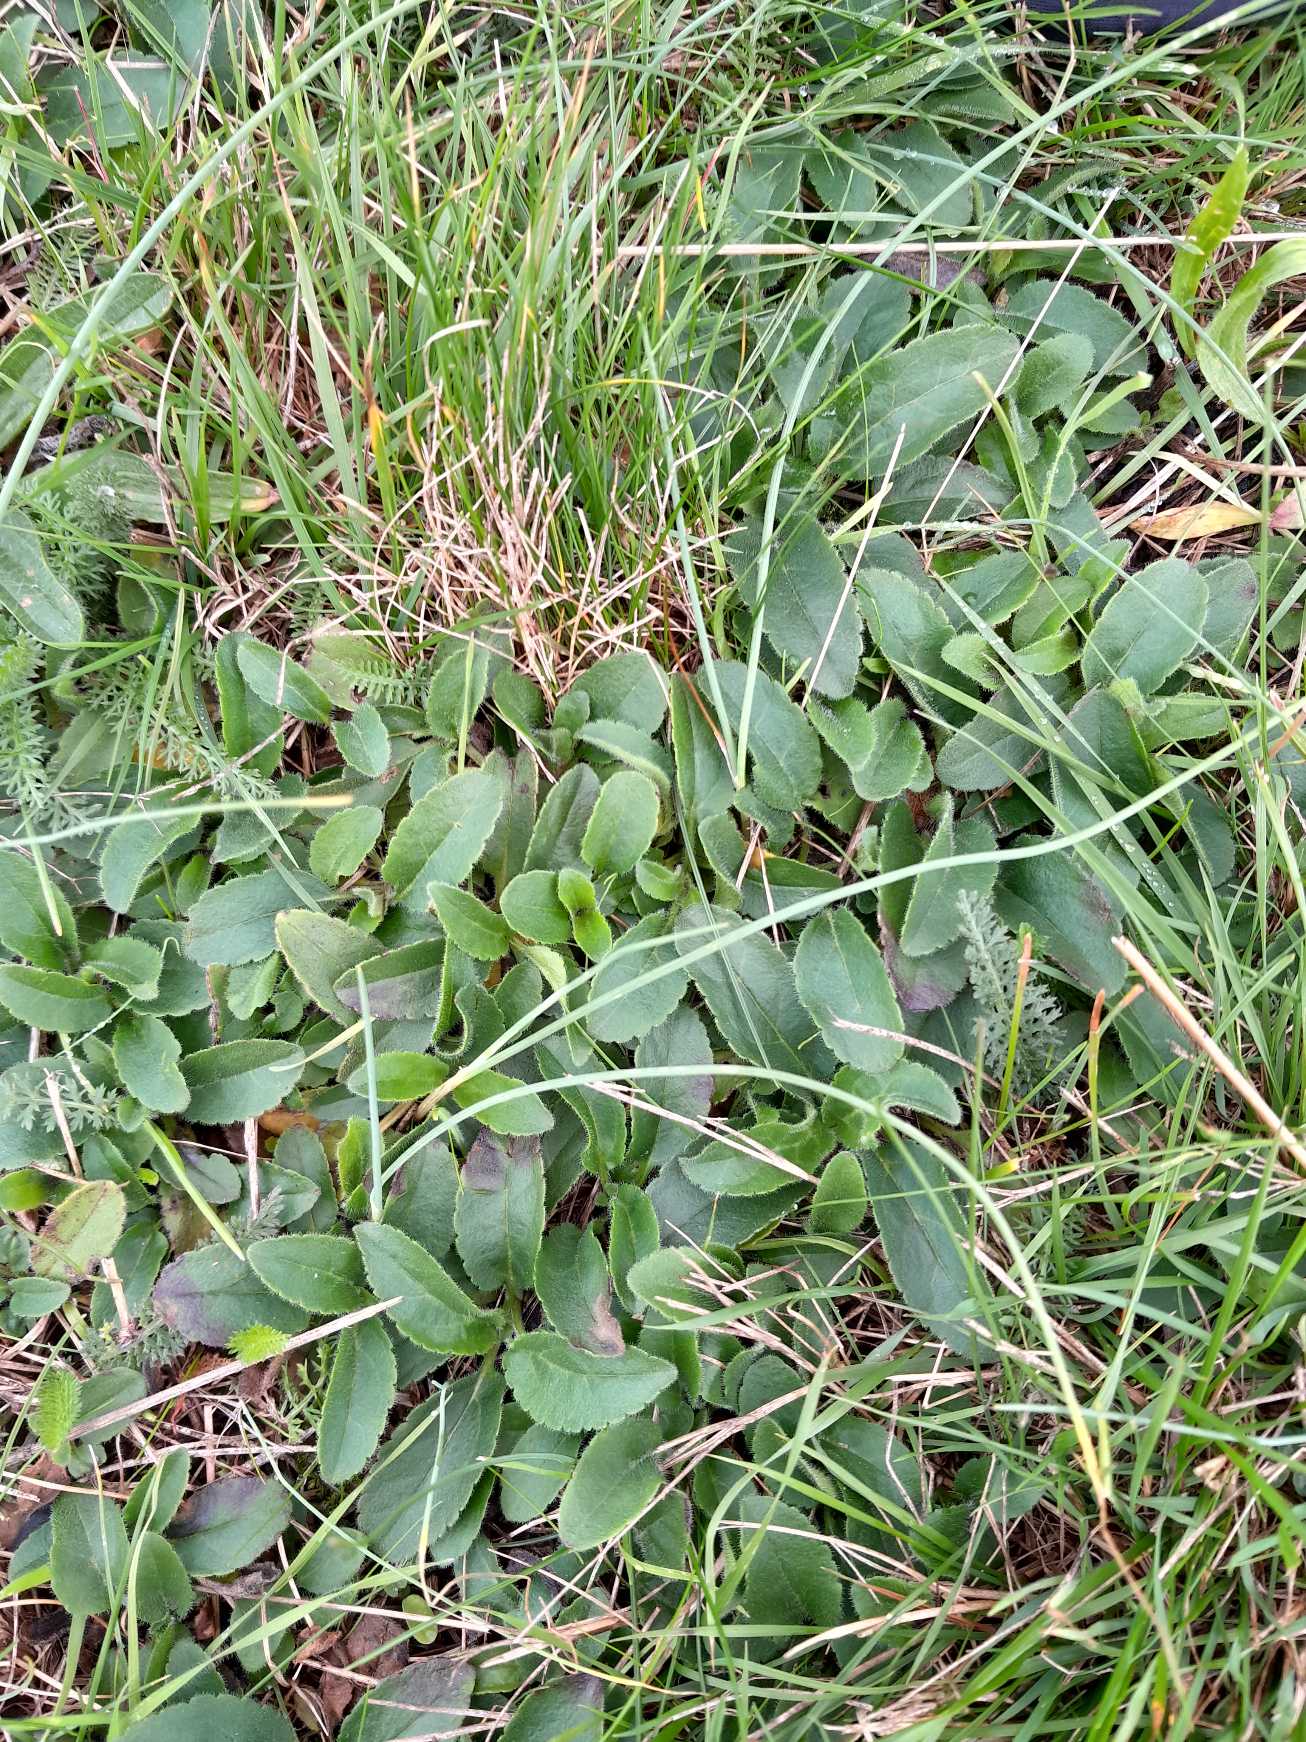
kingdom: Plantae
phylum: Tracheophyta
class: Magnoliopsida
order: Lamiales
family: Plantaginaceae
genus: Veronica
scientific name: Veronica spicata
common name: Aks-ærenpris
